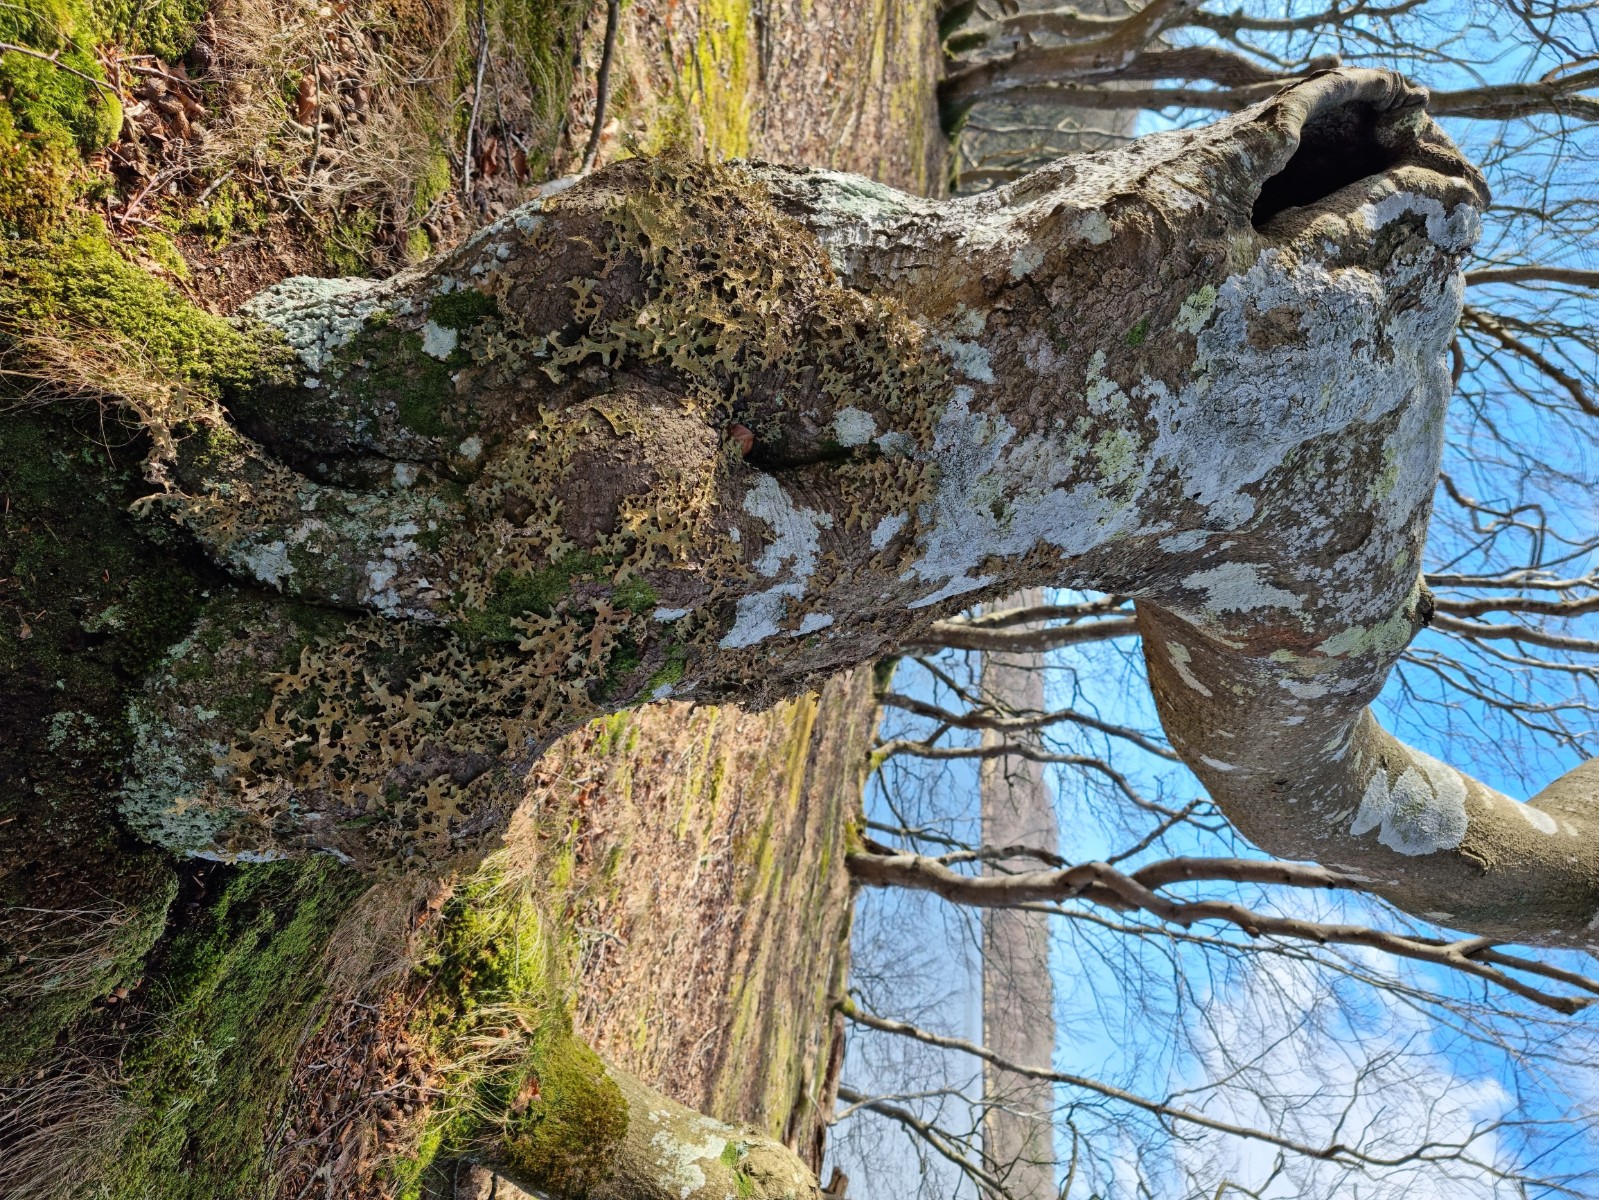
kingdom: Fungi
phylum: Ascomycota
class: Lecanoromycetes
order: Peltigerales
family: Lobariaceae
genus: Lobaria
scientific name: Lobaria pulmonaria
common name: almindelig lungelav
